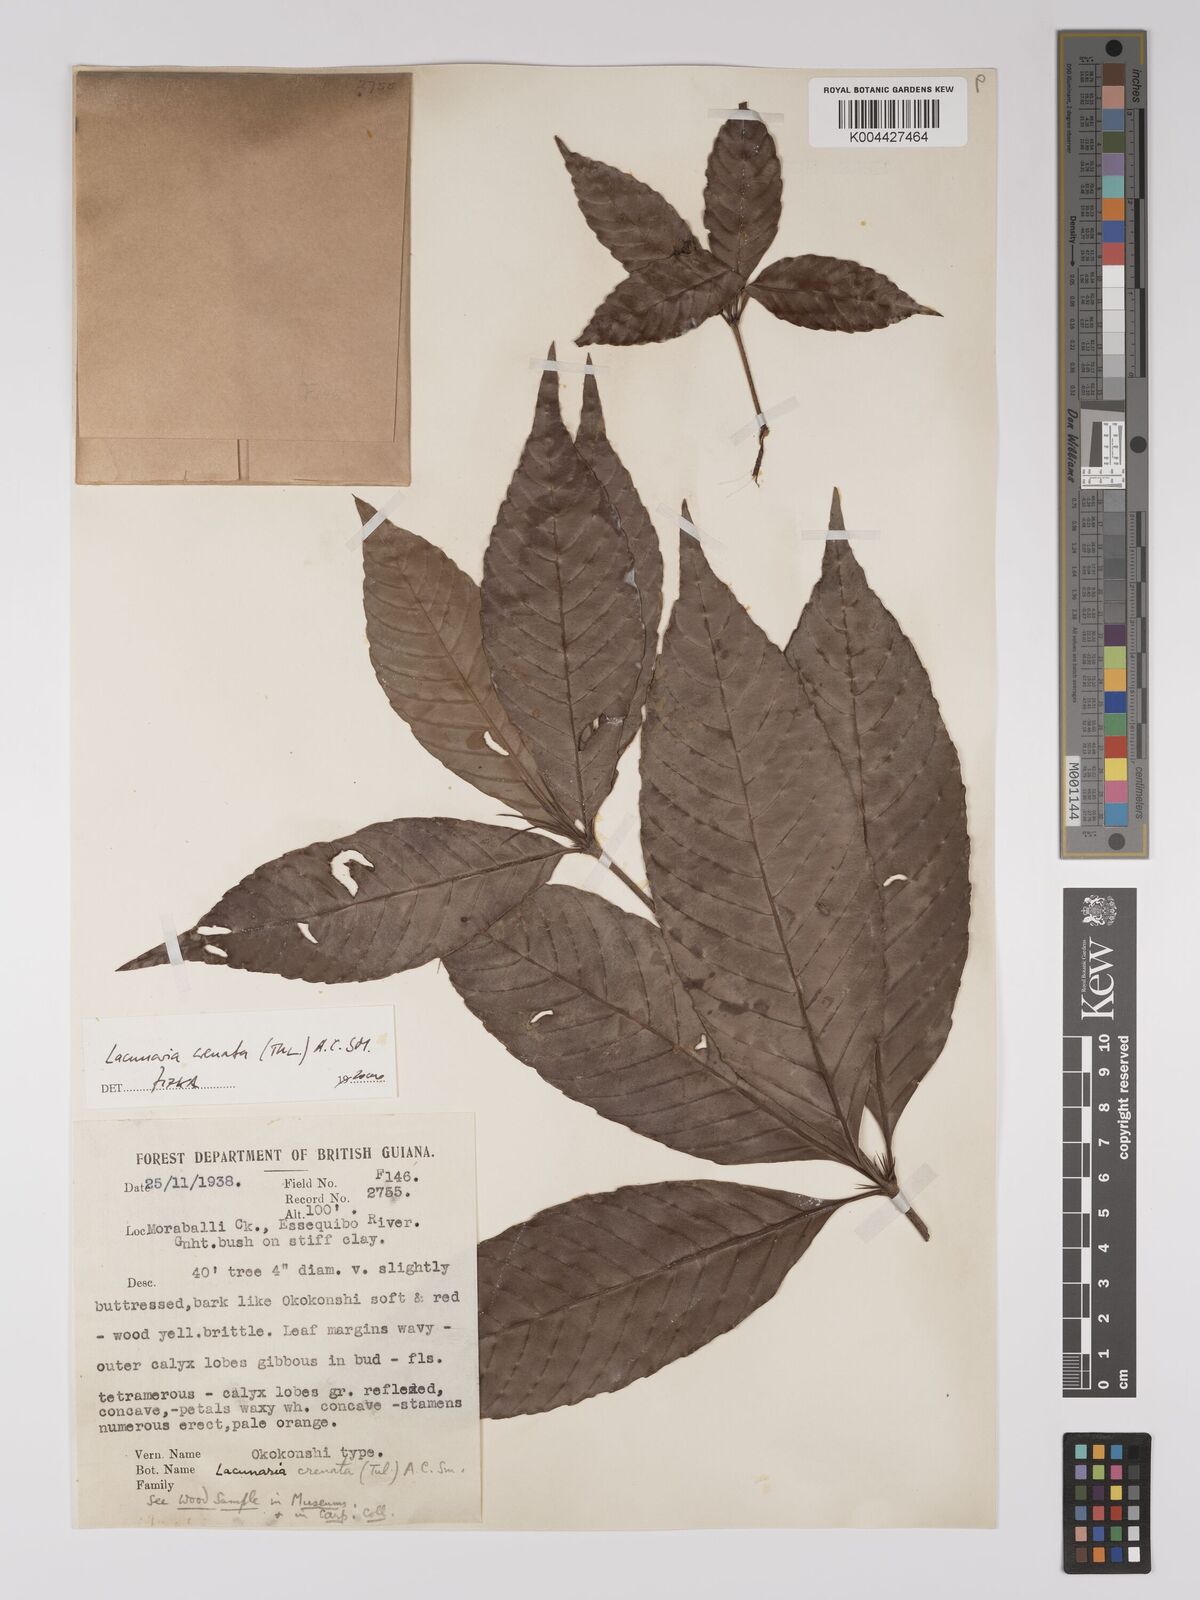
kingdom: Plantae
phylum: Tracheophyta
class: Magnoliopsida
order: Malpighiales
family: Quiinaceae
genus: Lacunaria
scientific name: Lacunaria crenata
